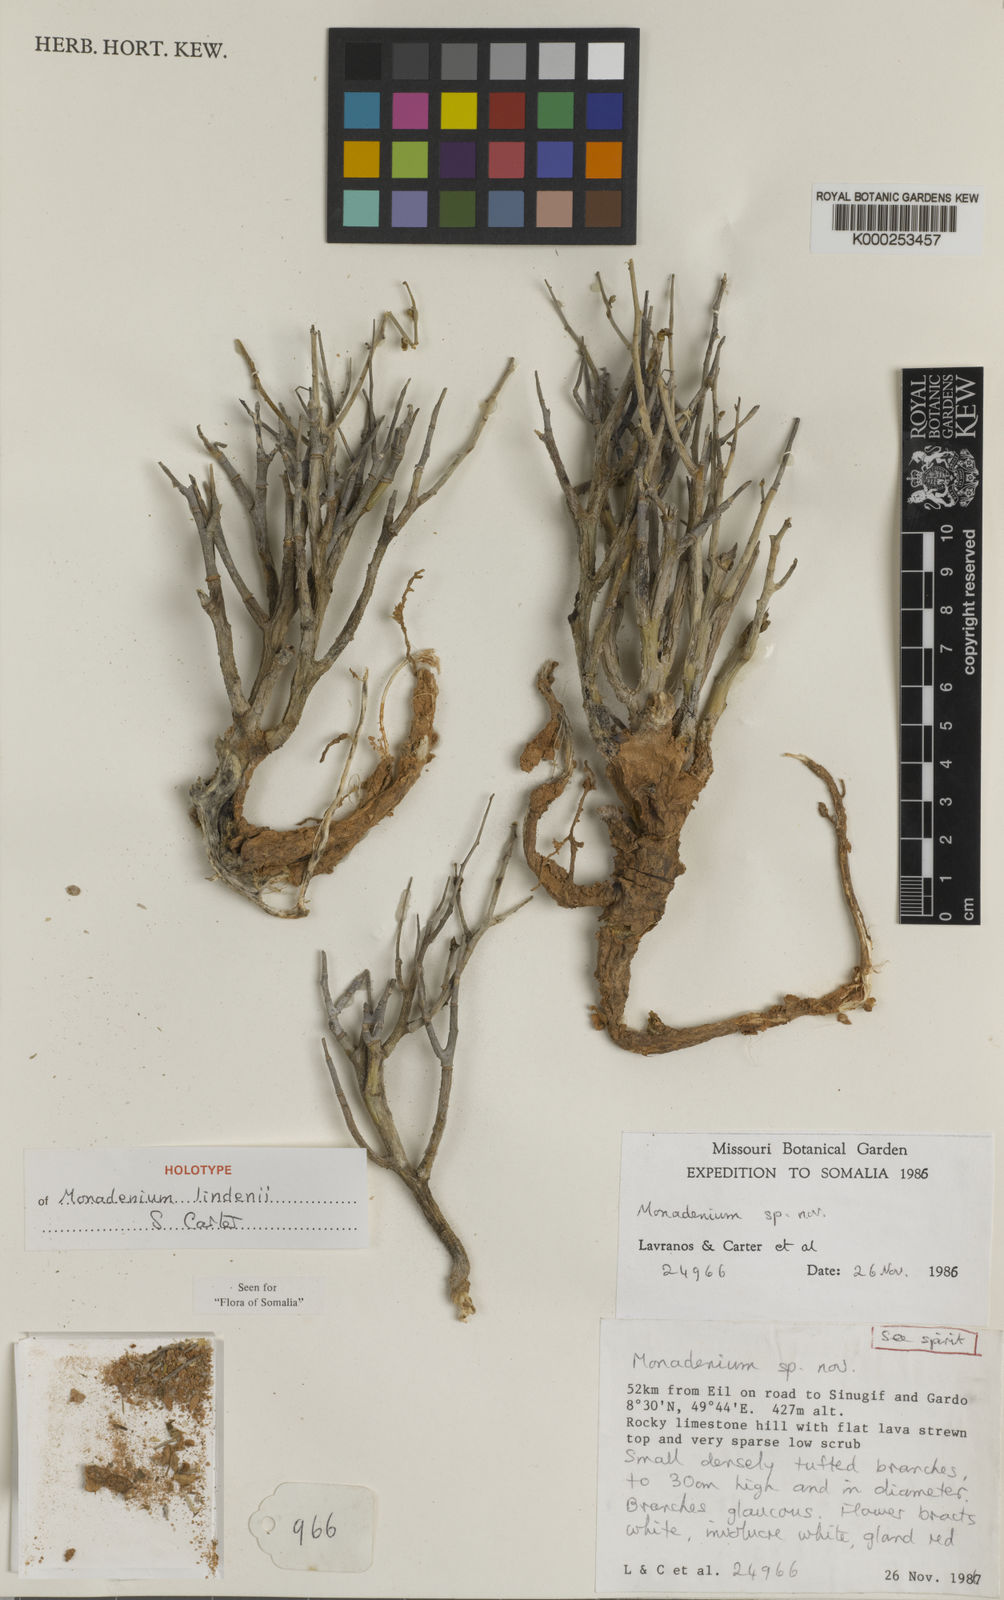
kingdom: Plantae
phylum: Tracheophyta
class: Magnoliopsida
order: Malpighiales
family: Euphorbiaceae
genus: Euphorbia
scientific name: Euphorbia lindenii
